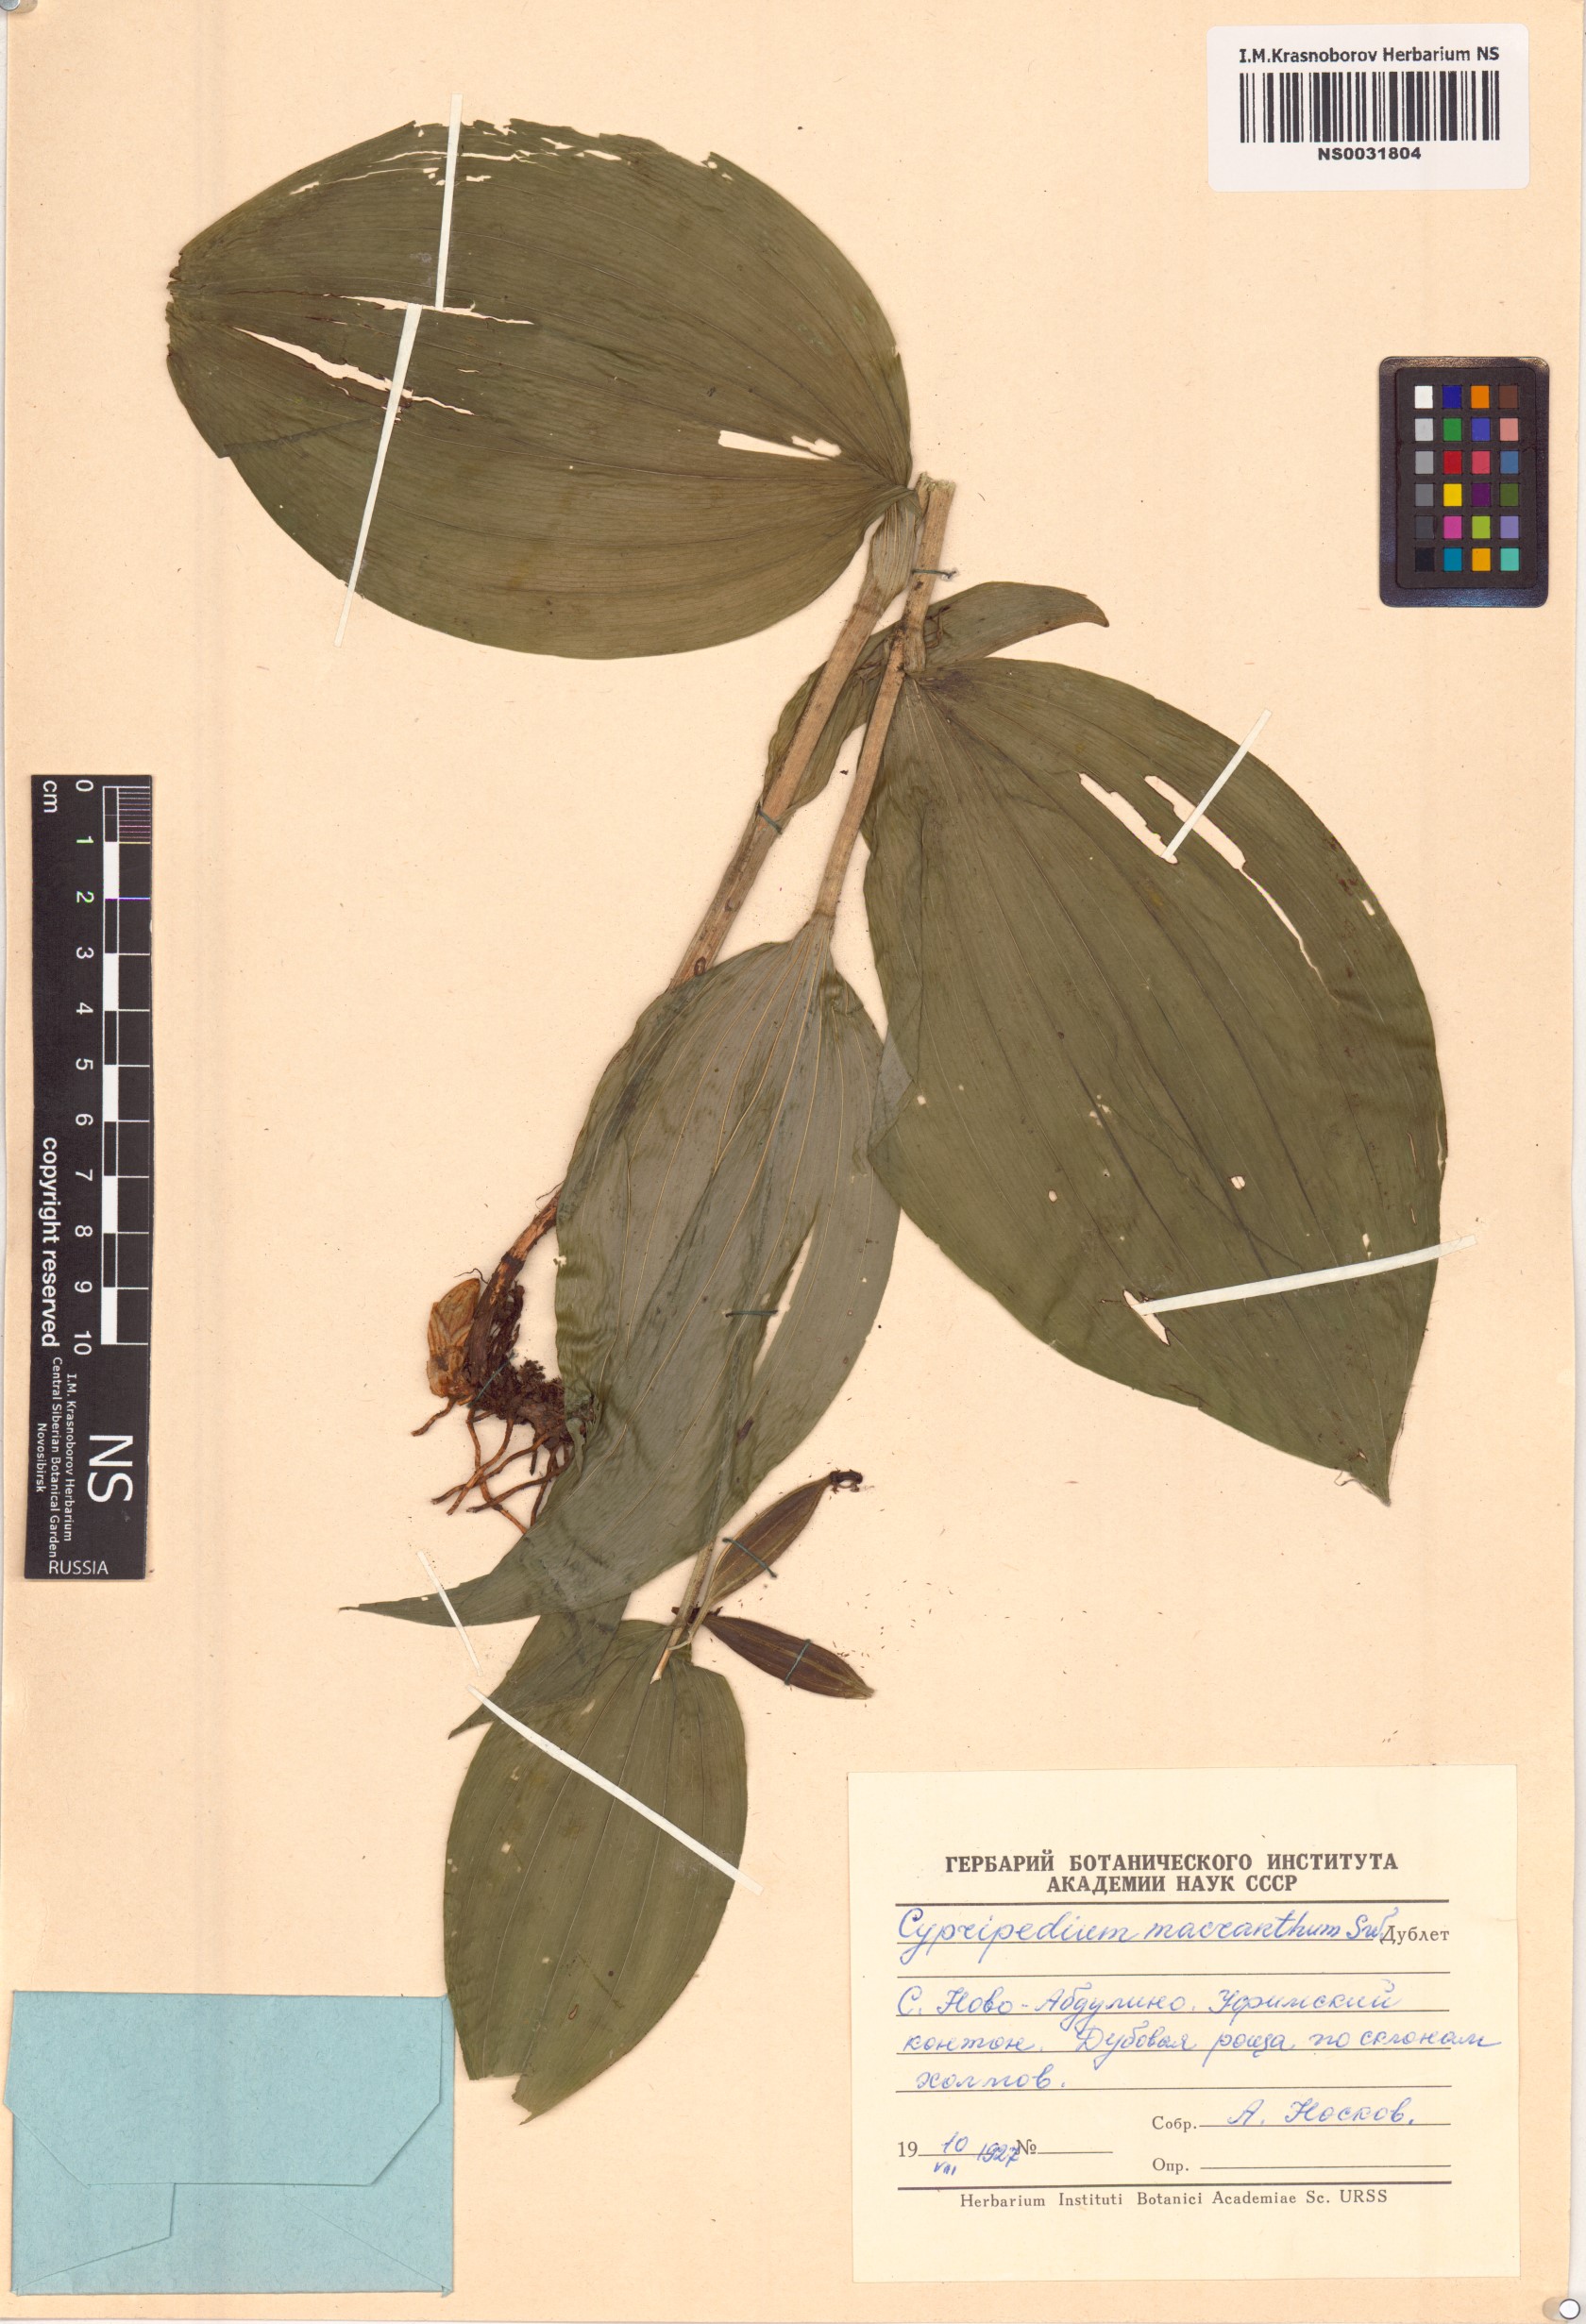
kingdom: Plantae
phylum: Tracheophyta
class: Liliopsida
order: Asparagales
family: Orchidaceae
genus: Cypripedium
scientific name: Cypripedium macranthos
